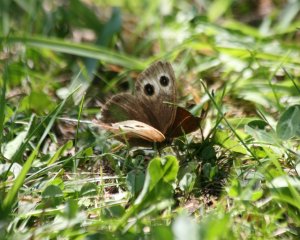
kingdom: Animalia
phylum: Arthropoda
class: Insecta
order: Lepidoptera
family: Nymphalidae
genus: Cercyonis
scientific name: Cercyonis pegala
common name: Common Wood-Nymph
